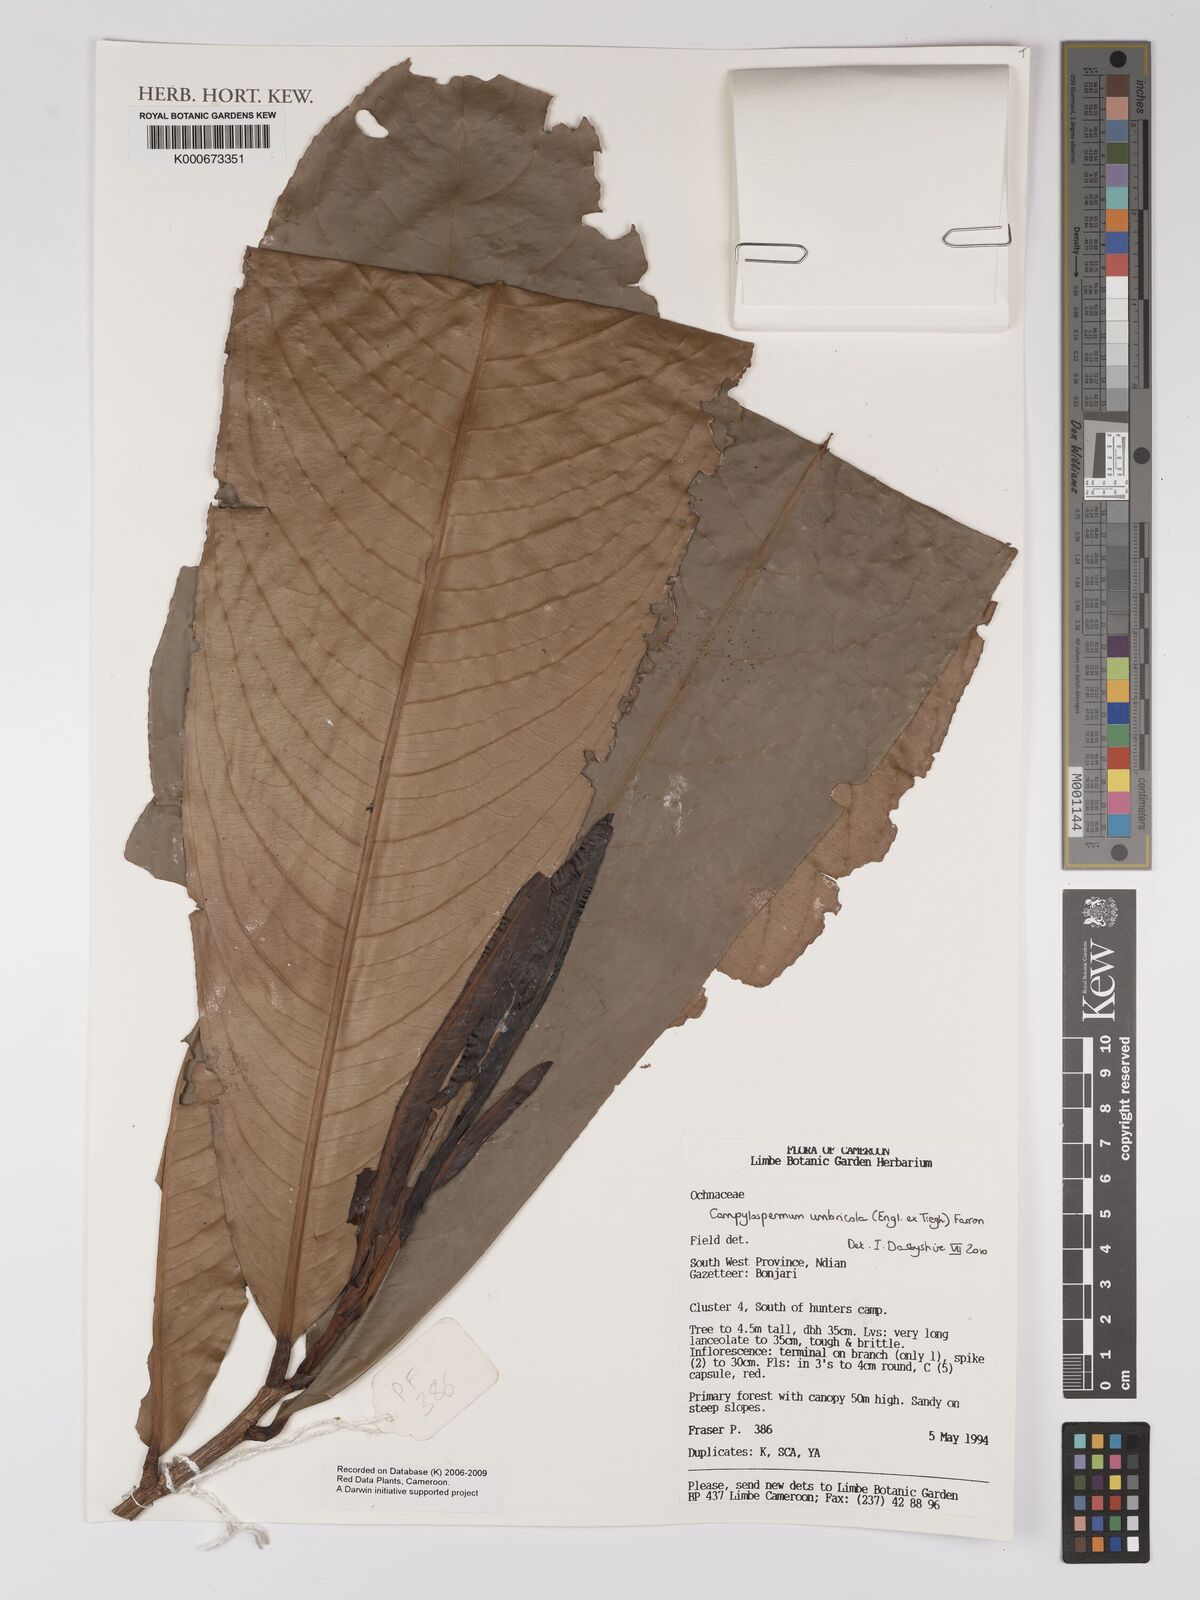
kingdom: Plantae
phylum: Tracheophyta
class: Magnoliopsida
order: Malpighiales
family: Ochnaceae
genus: Campylospermum
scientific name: Campylospermum umbricola
